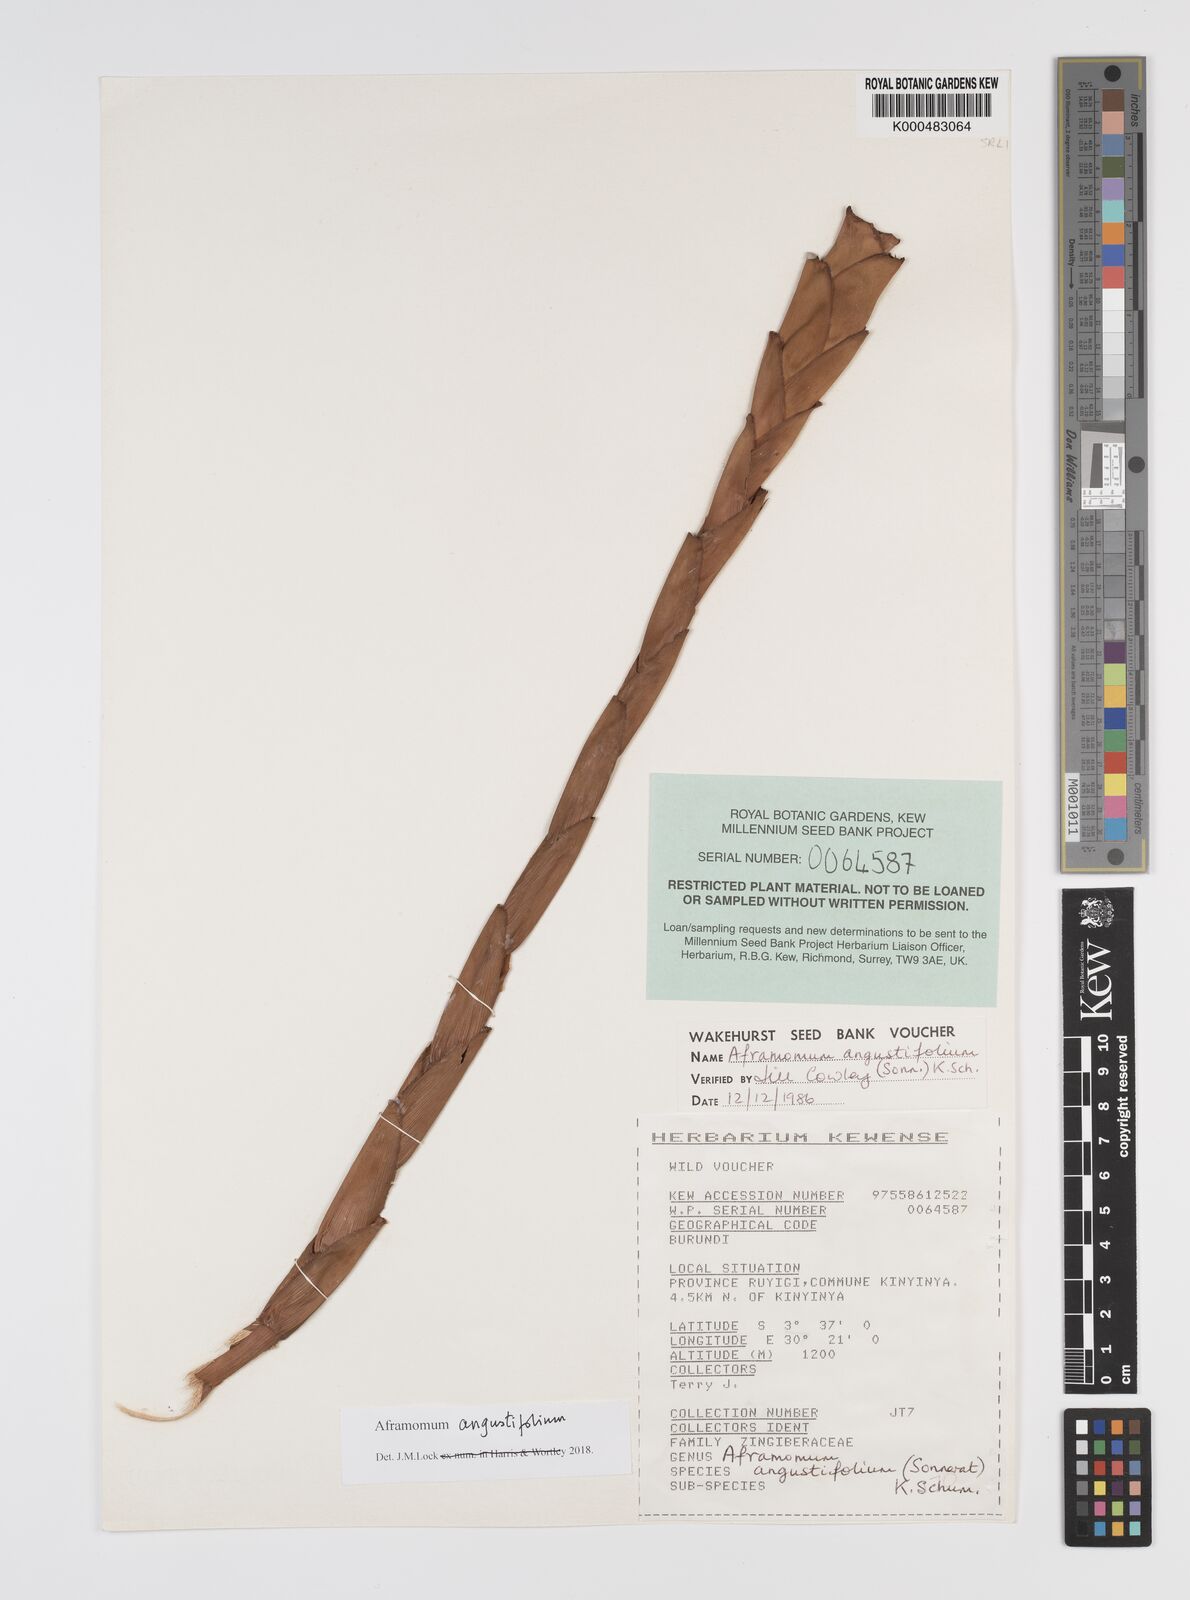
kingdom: Plantae
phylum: Tracheophyta
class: Liliopsida
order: Zingiberales
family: Zingiberaceae
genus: Aframomum
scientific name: Aframomum angustifolium
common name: Guinea grains
